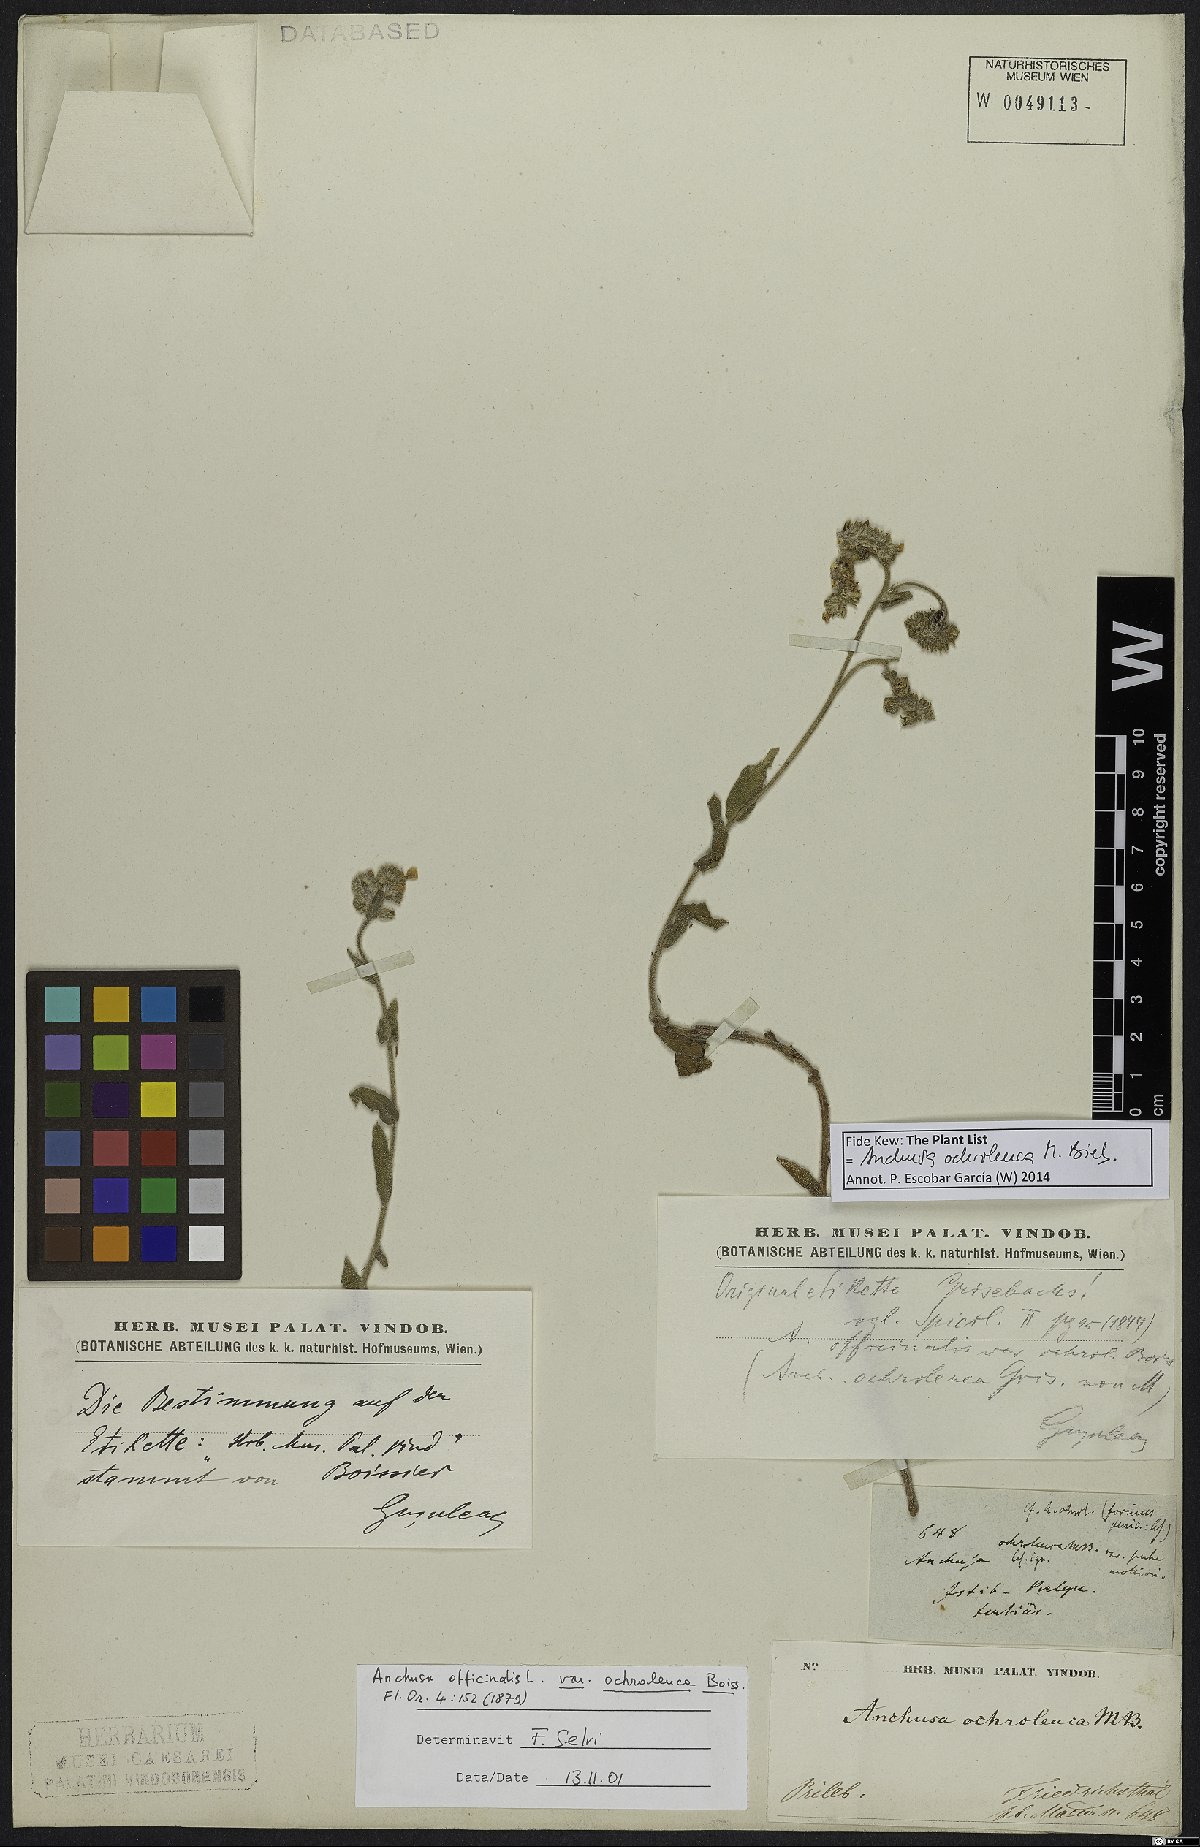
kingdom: Plantae
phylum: Tracheophyta
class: Magnoliopsida
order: Boraginales
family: Boraginaceae
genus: Anchusa
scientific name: Anchusa ochroleuca
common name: Yellow alkanet
